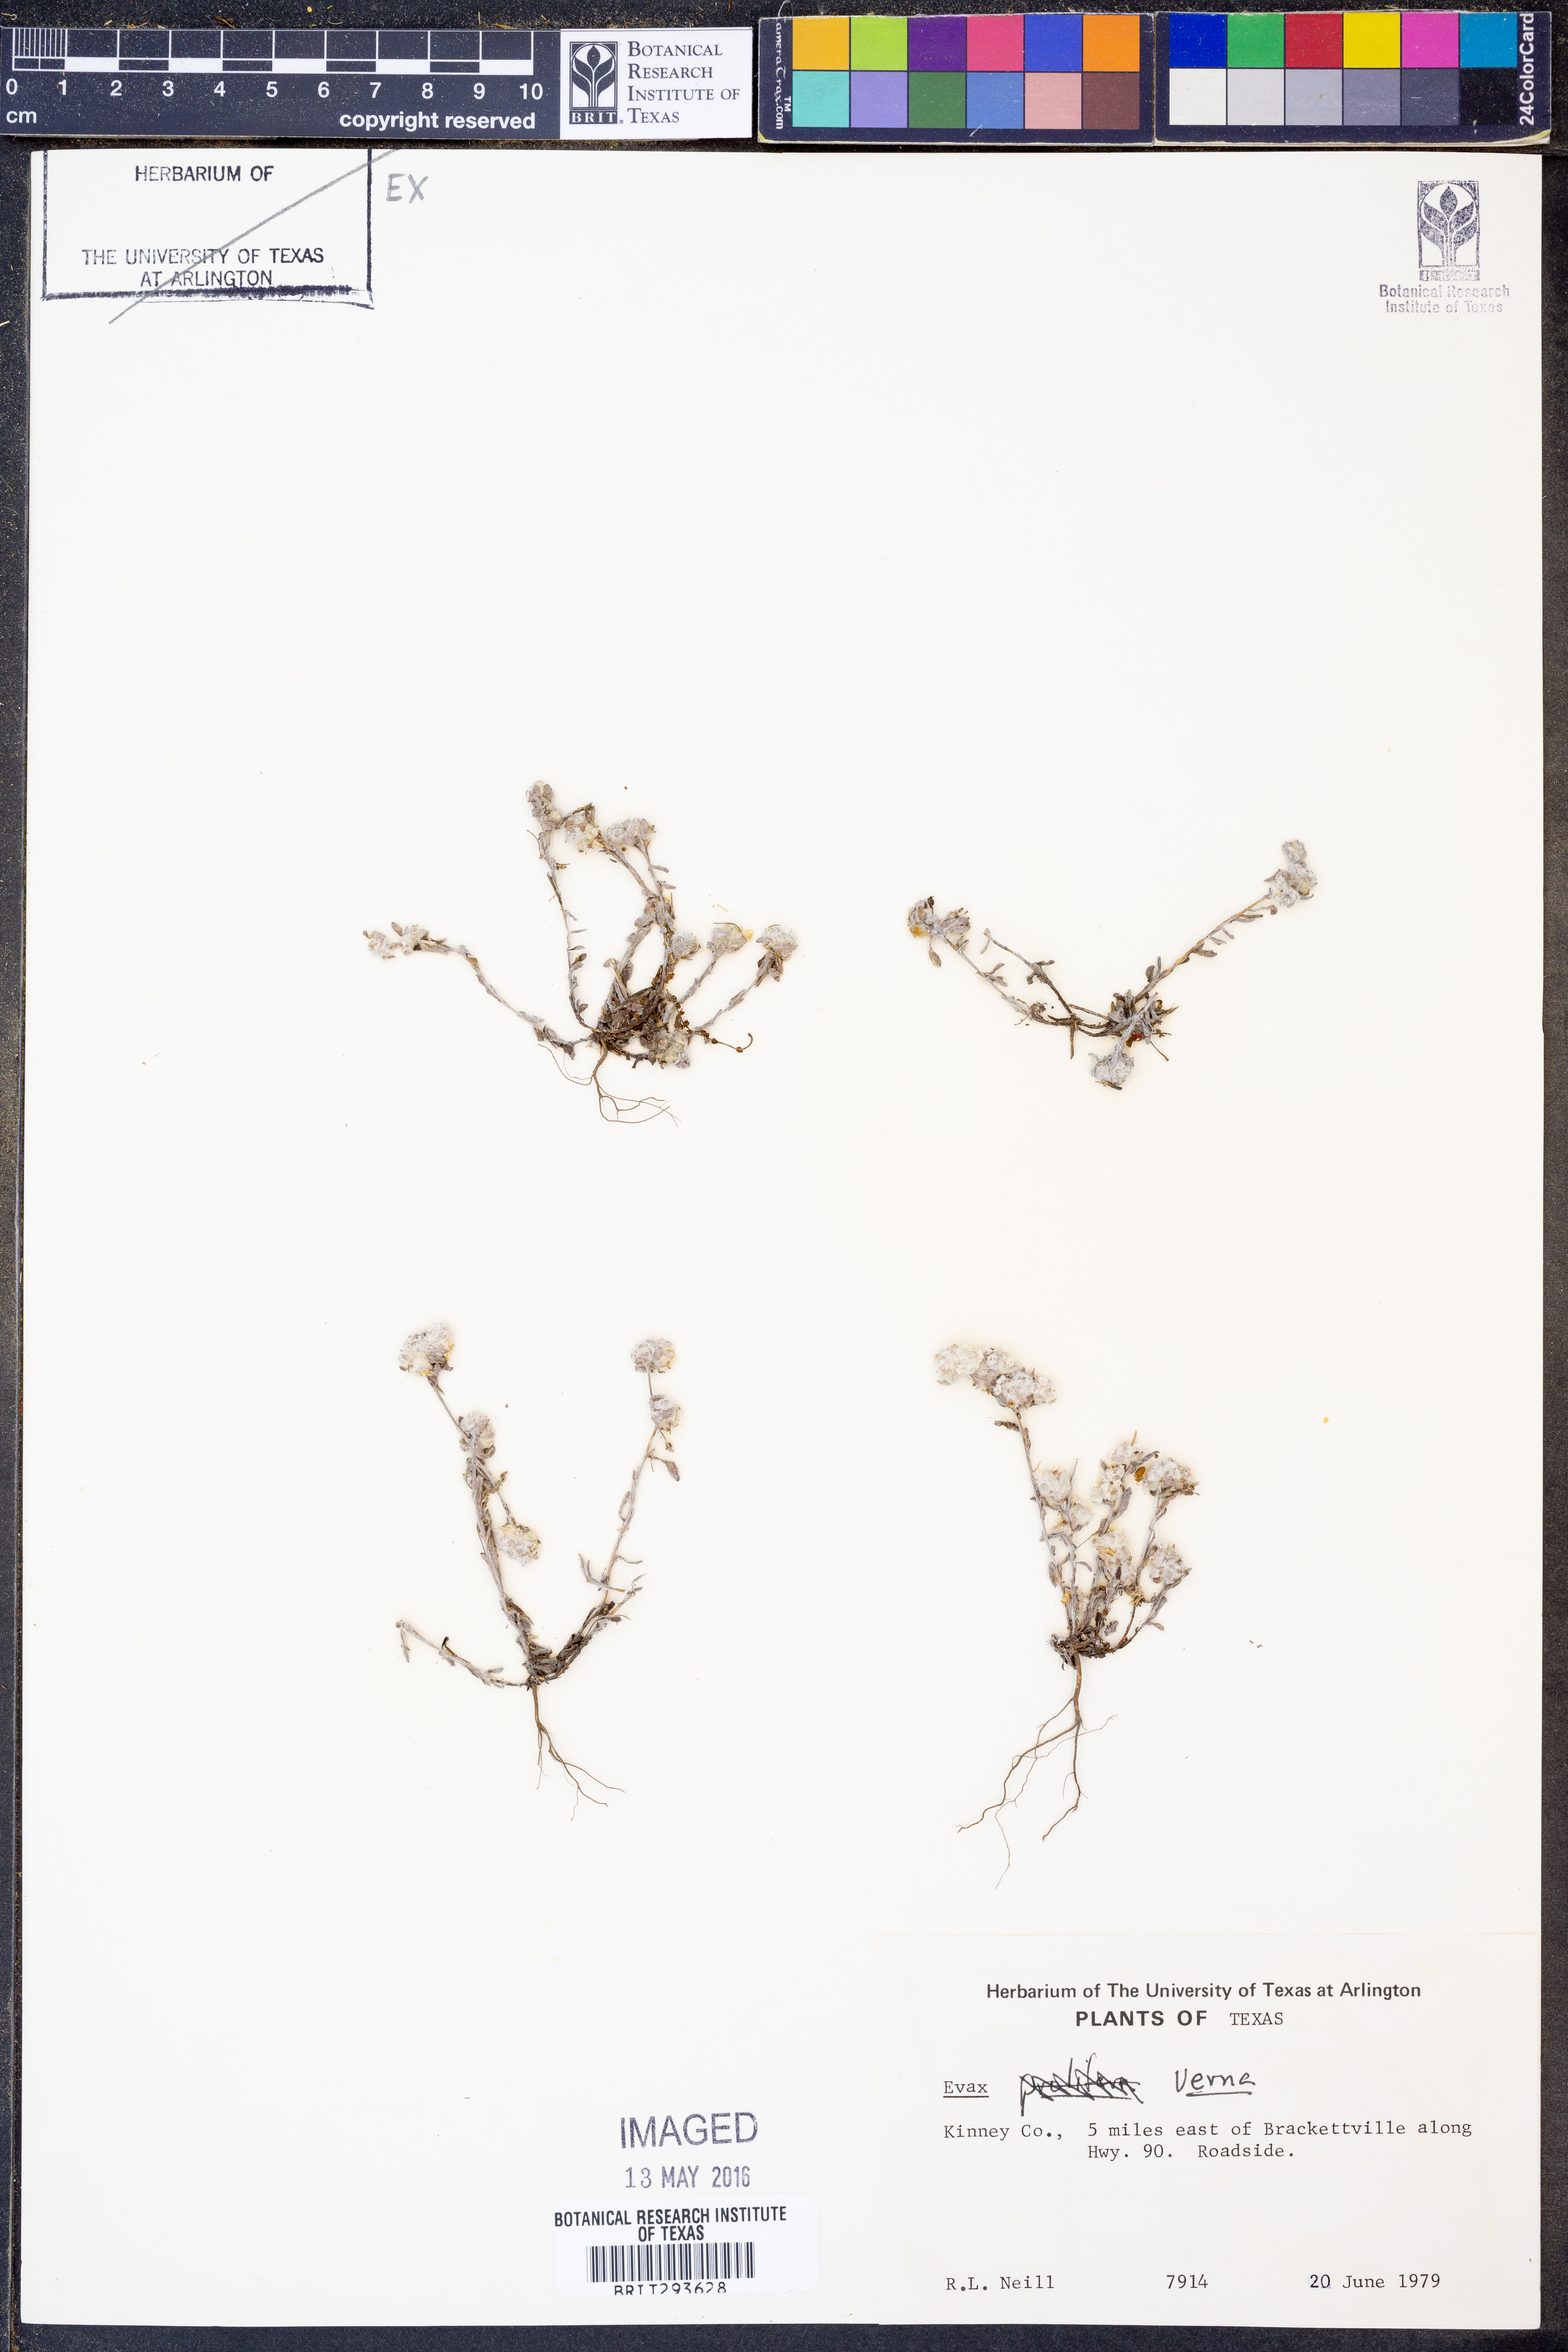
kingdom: Plantae
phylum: Tracheophyta
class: Magnoliopsida
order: Asterales
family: Asteraceae
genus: Diaperia
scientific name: Diaperia verna
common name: Many-stem rabbit-tobacco
